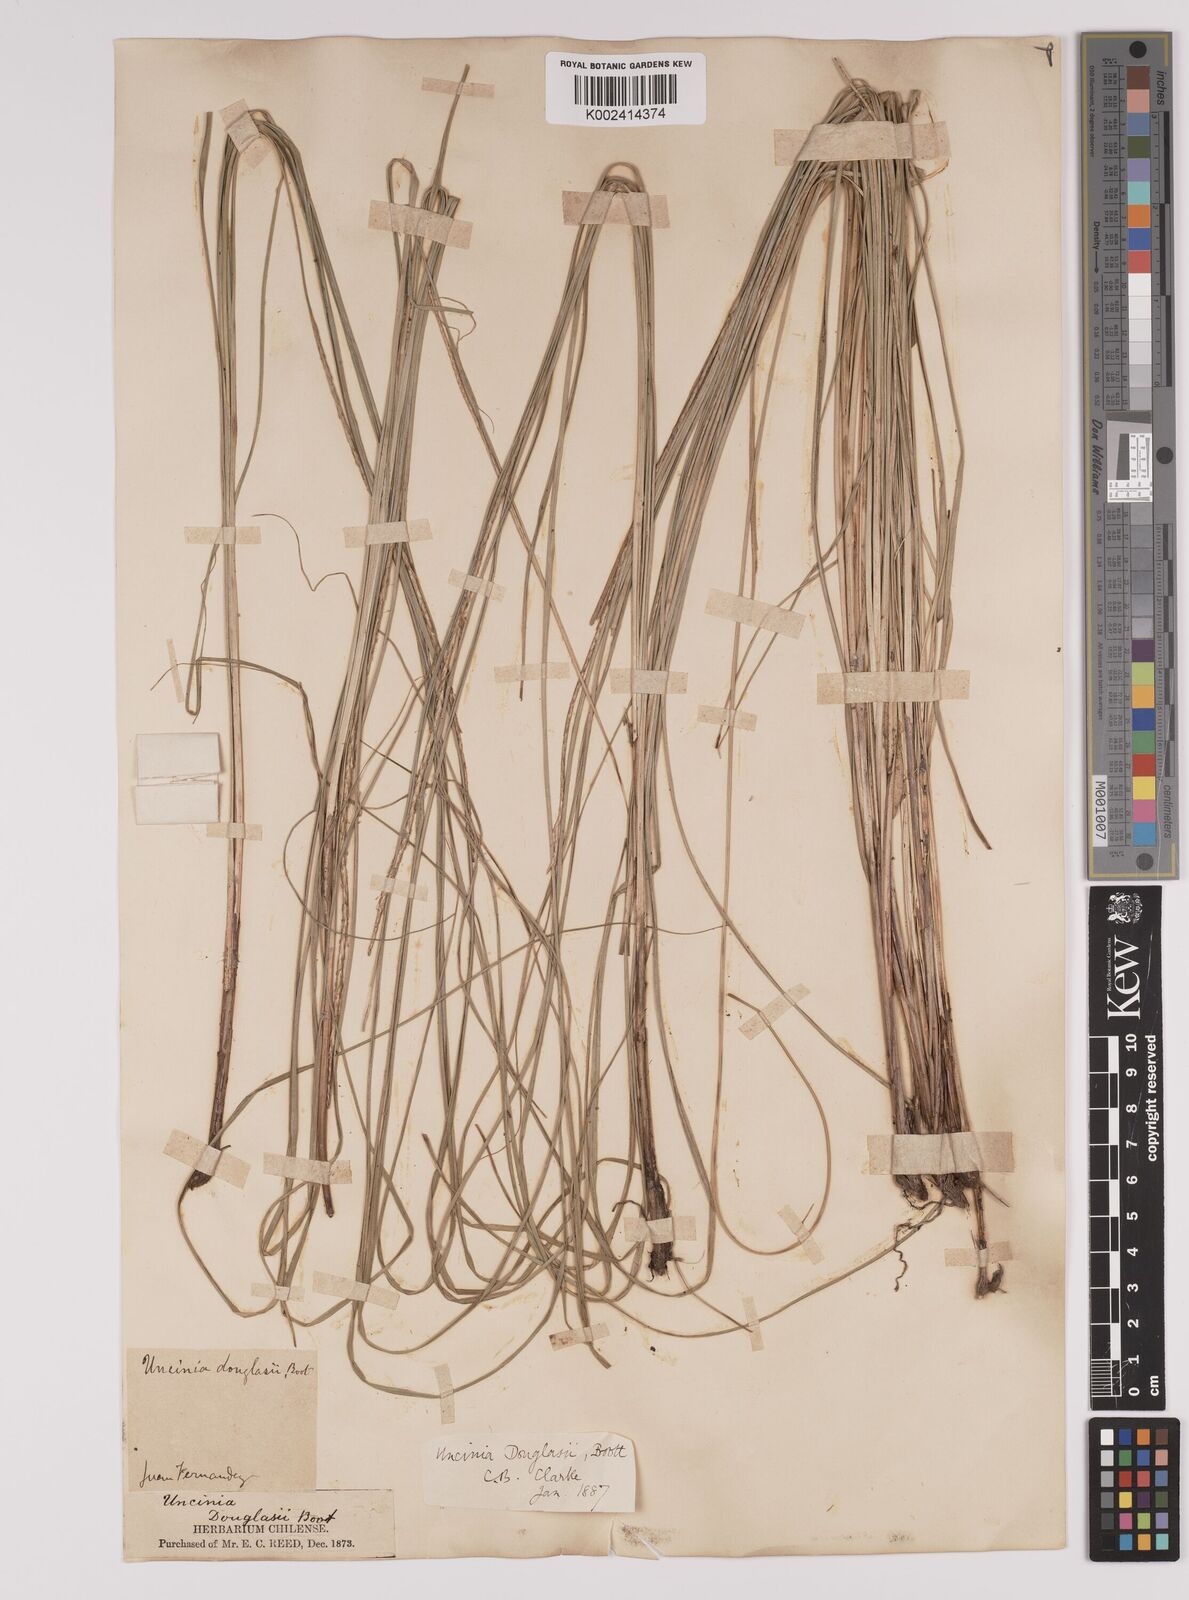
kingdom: Plantae
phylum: Tracheophyta
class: Liliopsida
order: Poales
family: Cyperaceae
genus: Carex
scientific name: Carex fernandesiana
